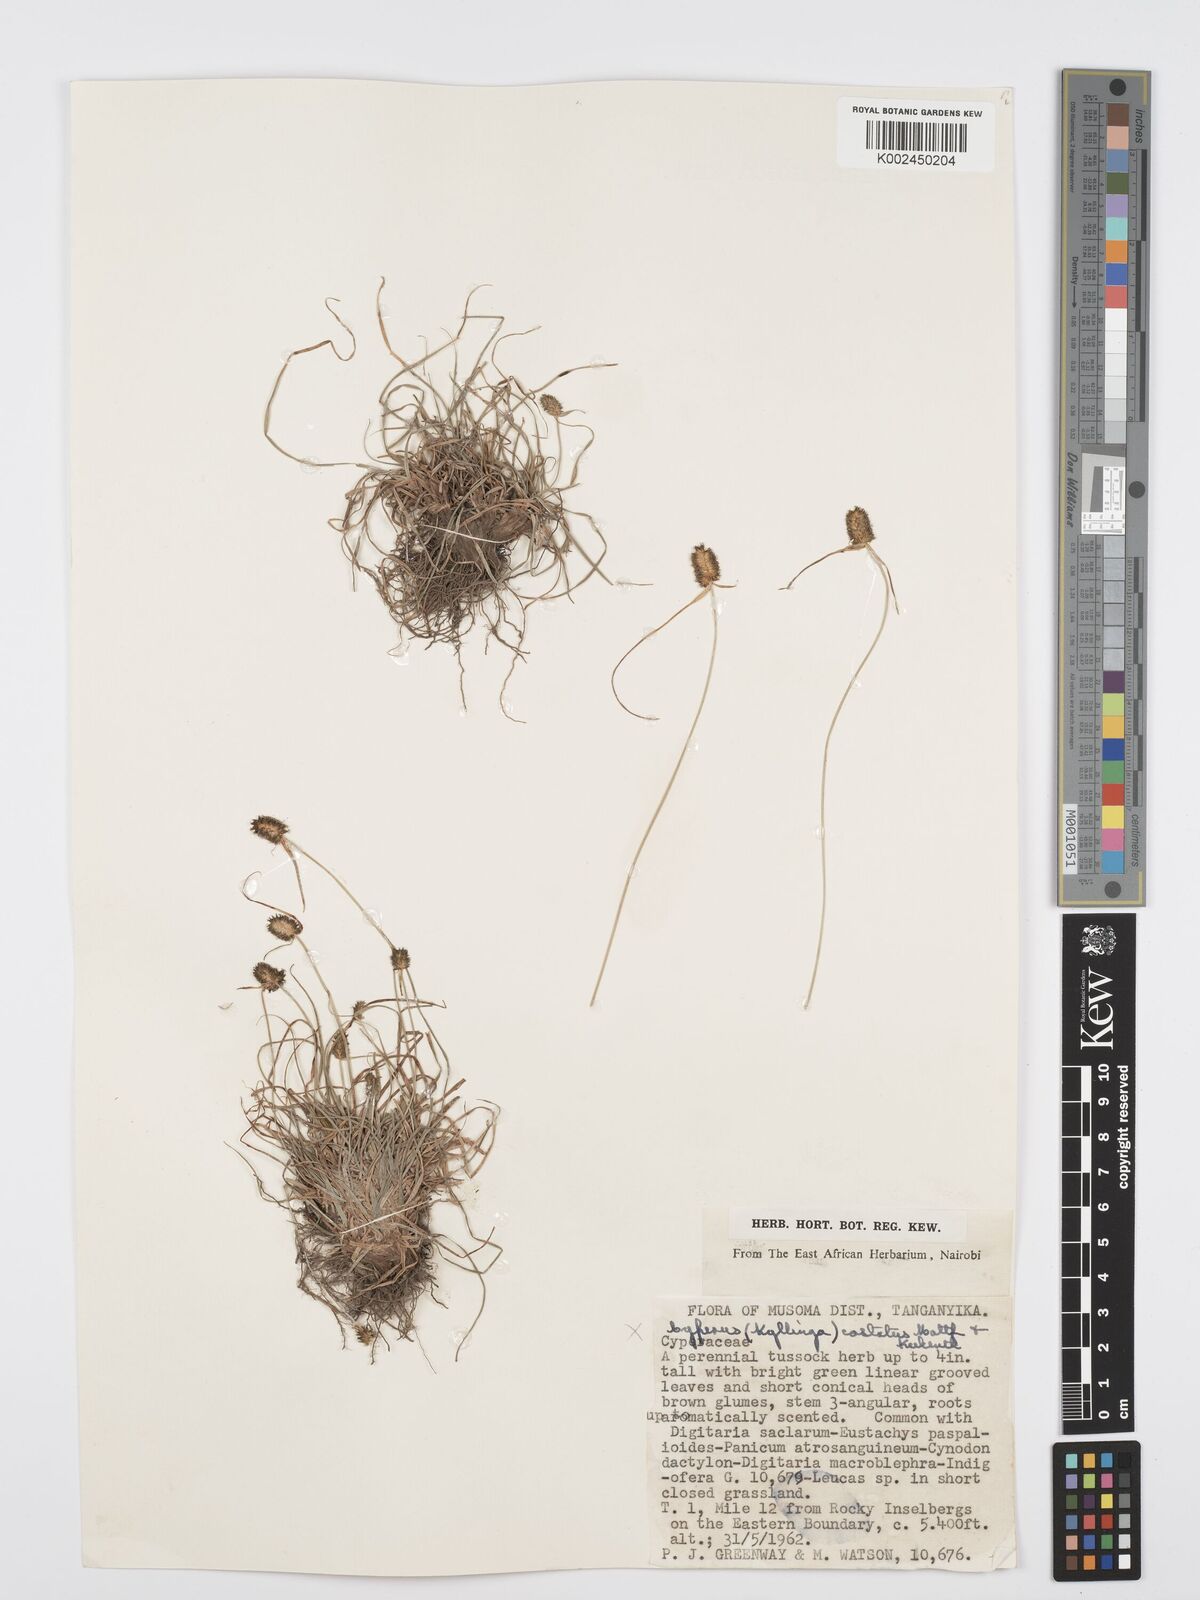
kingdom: Plantae
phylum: Tracheophyta
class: Liliopsida
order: Poales
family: Cyperaceae
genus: Cyperus
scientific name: Cyperus
